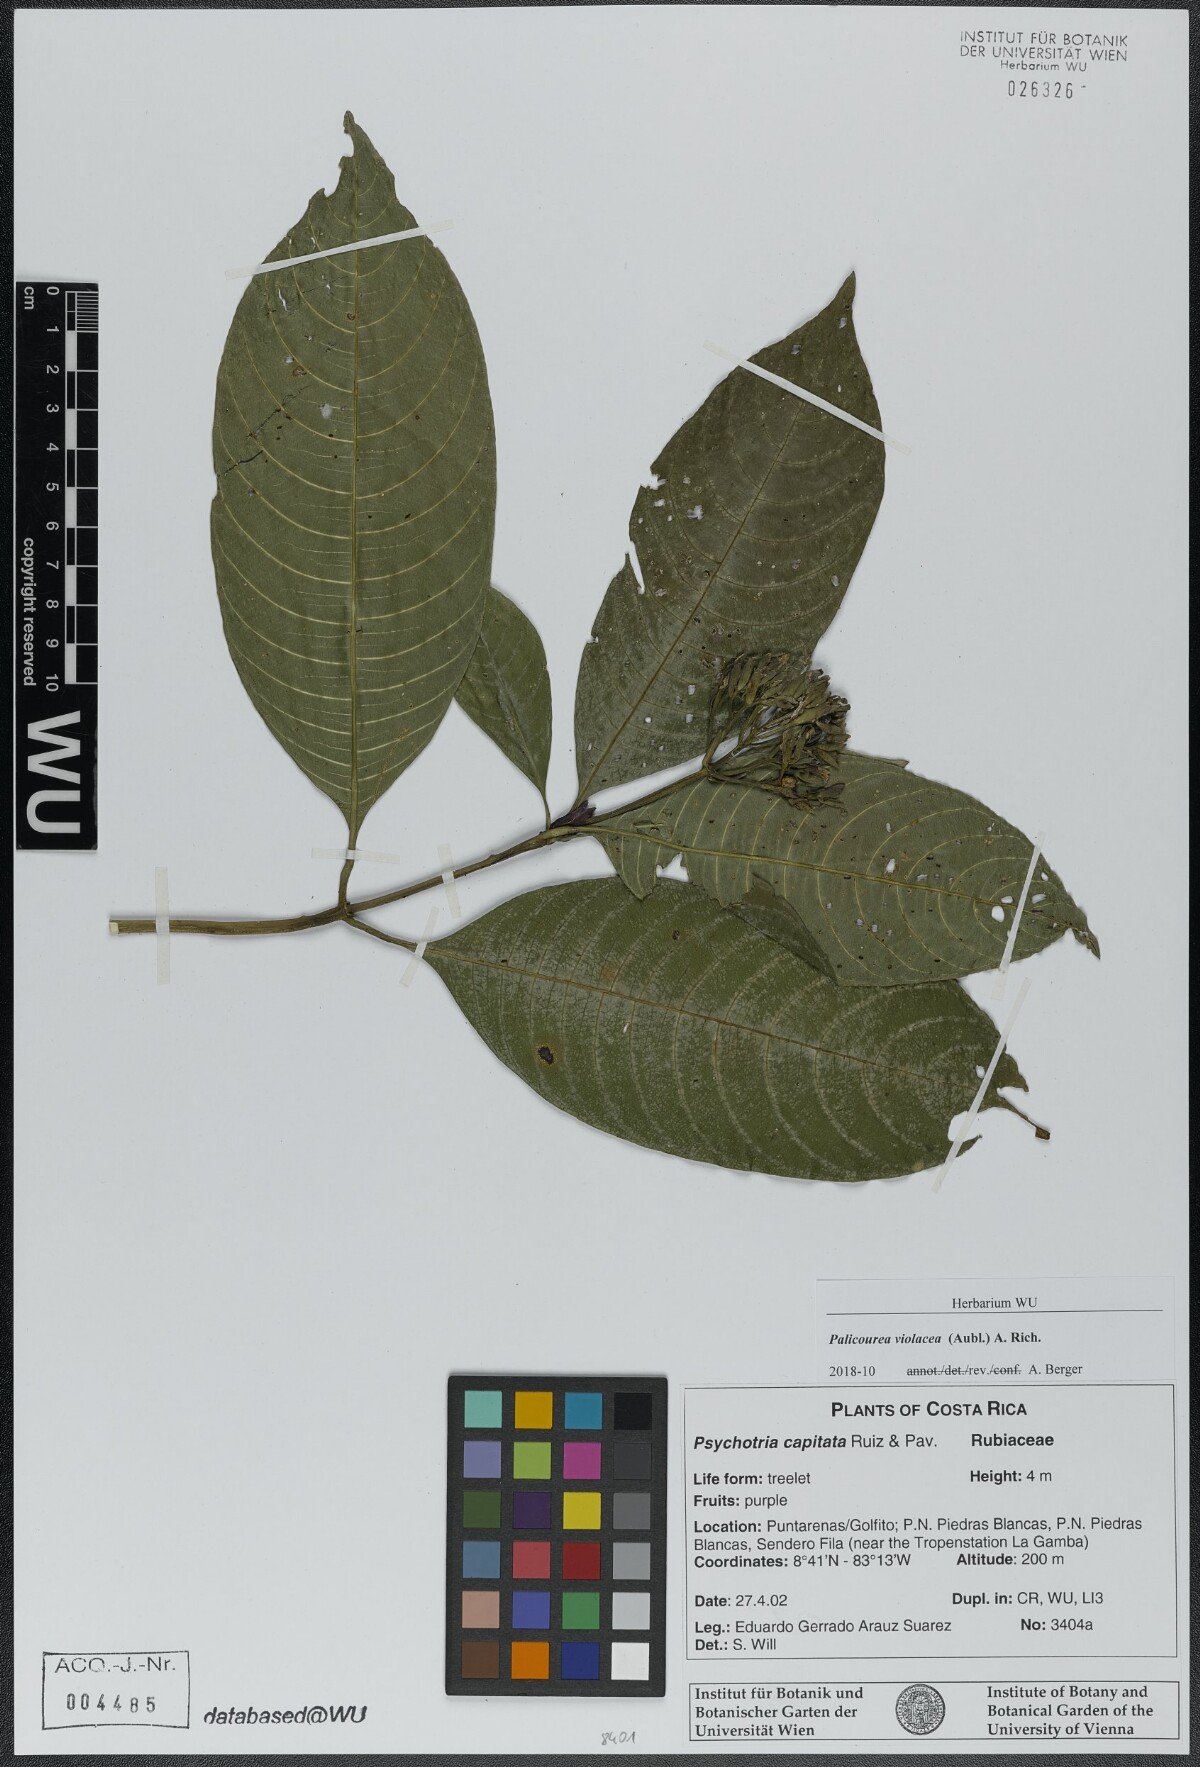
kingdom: Plantae
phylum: Tracheophyta
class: Magnoliopsida
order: Gentianales
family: Rubiaceae
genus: Palicourea
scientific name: Palicourea violacea
